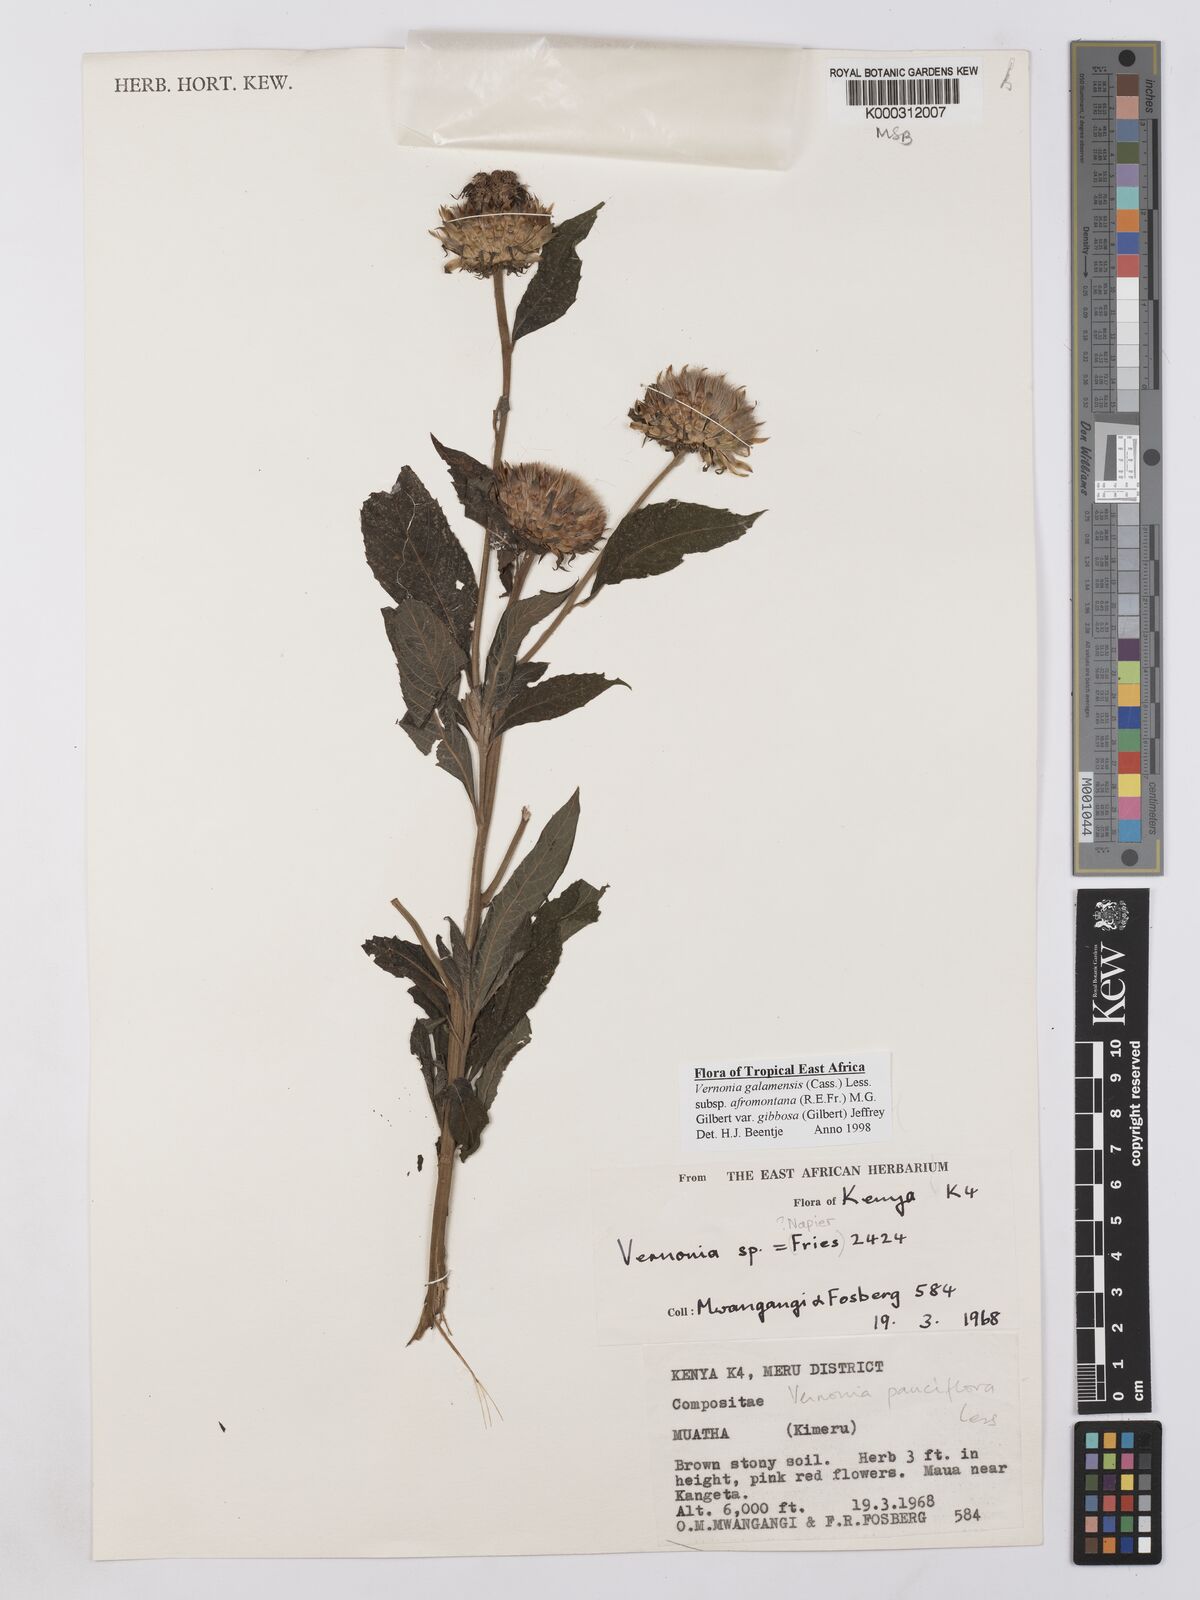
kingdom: Plantae
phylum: Tracheophyta
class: Magnoliopsida
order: Asterales
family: Asteraceae
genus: Vernonia
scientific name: Vernonia galamensis
